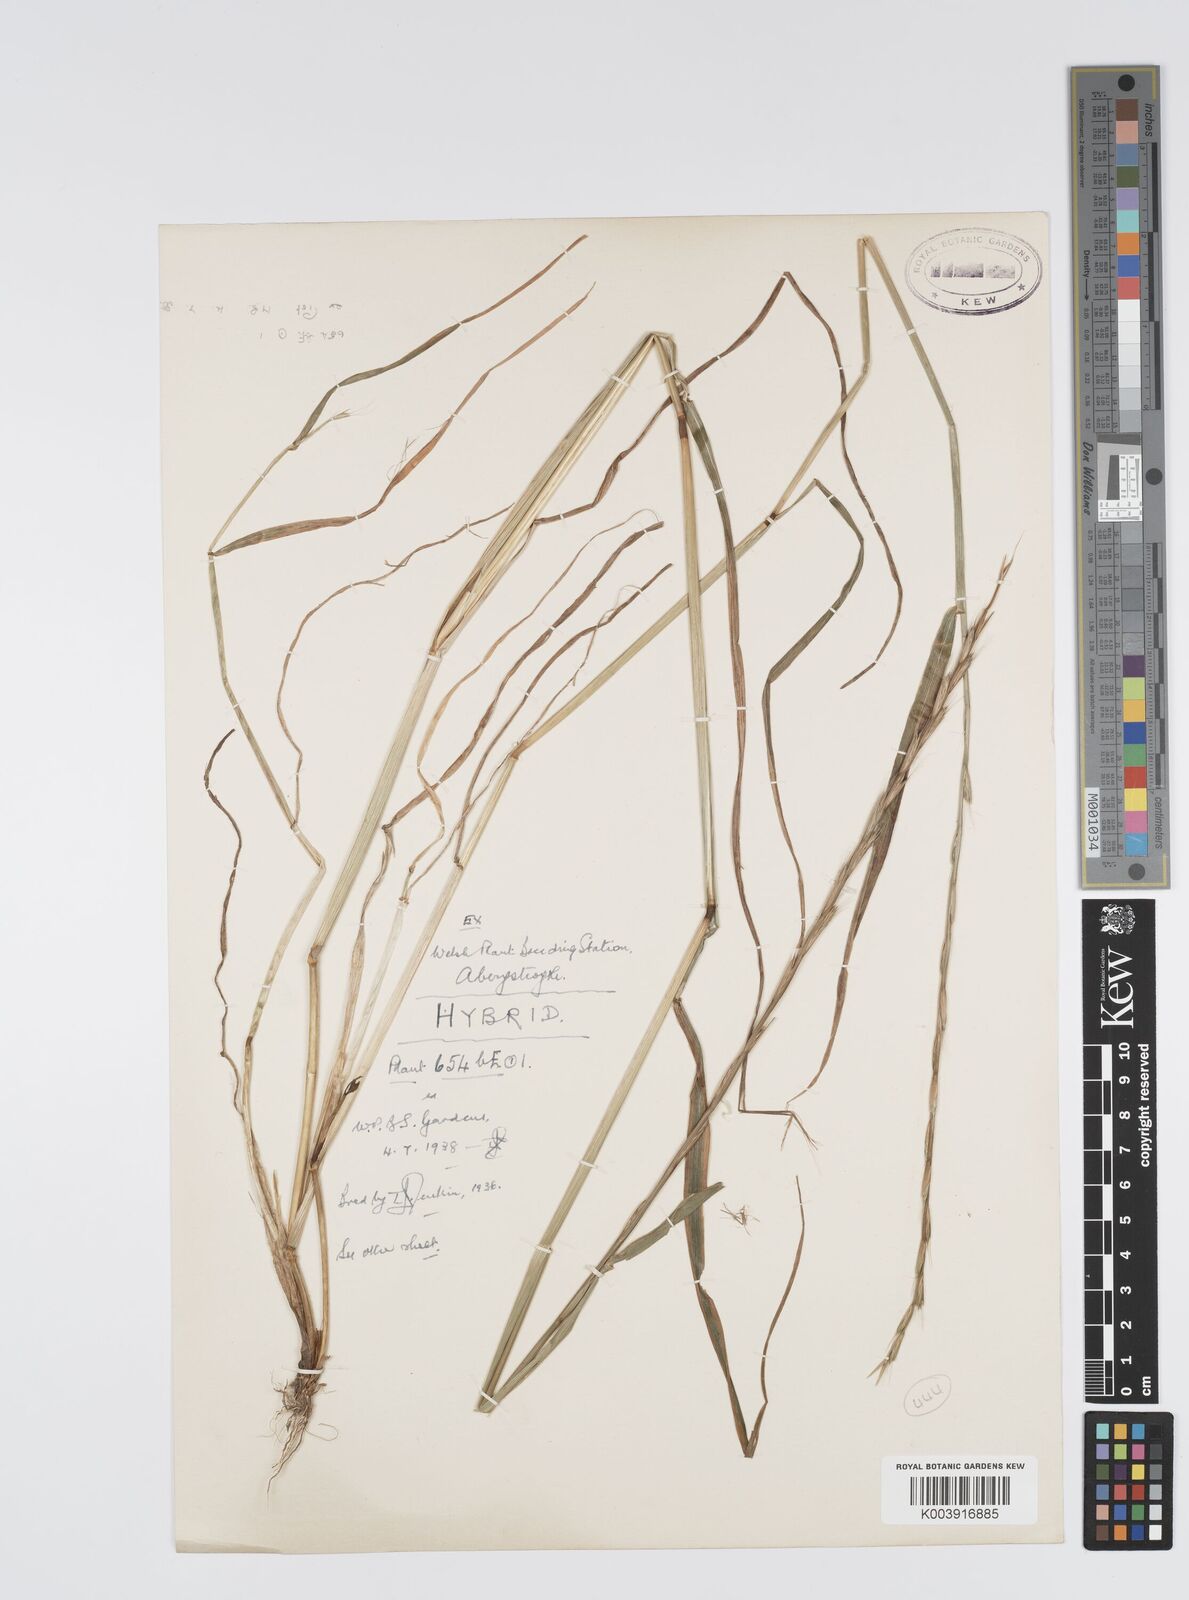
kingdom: Plantae
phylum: Tracheophyta
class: Liliopsida
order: Poales
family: Poaceae
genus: Lolium
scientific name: Lolium multiflorum
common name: Annual ryegrass
